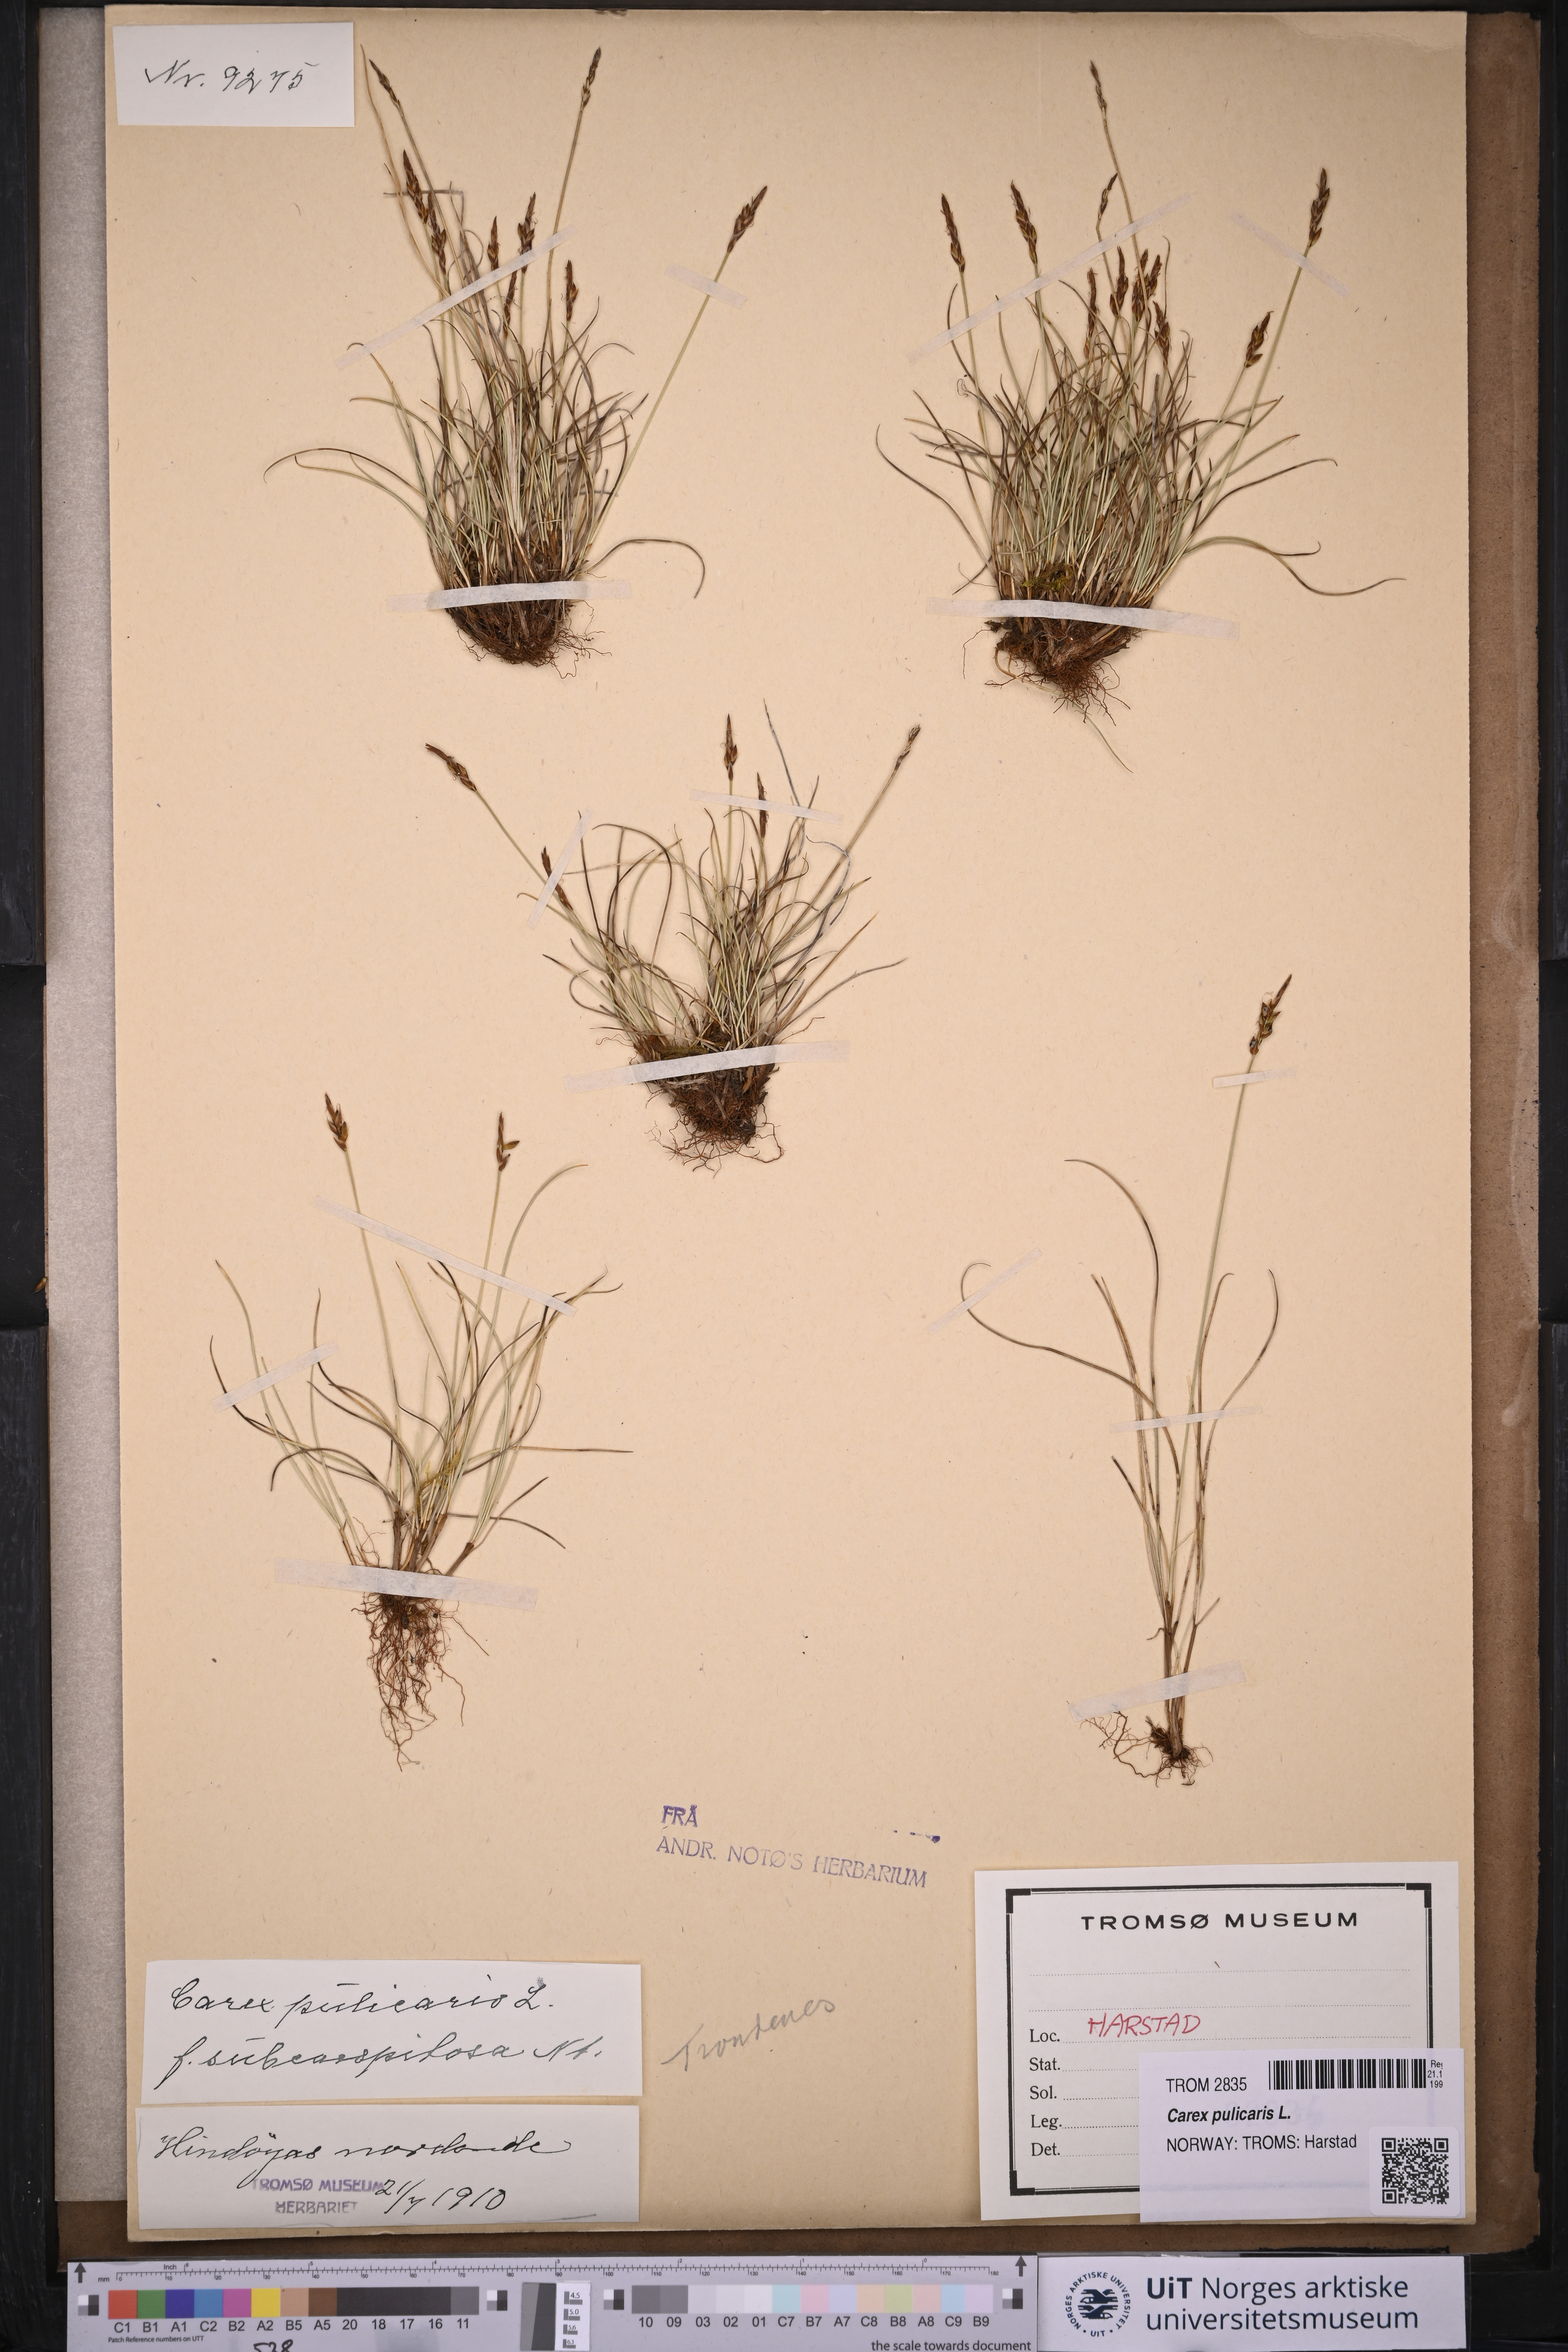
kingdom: Plantae
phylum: Tracheophyta
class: Liliopsida
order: Poales
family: Cyperaceae
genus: Carex
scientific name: Carex pulicaris
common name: Flea sedge
